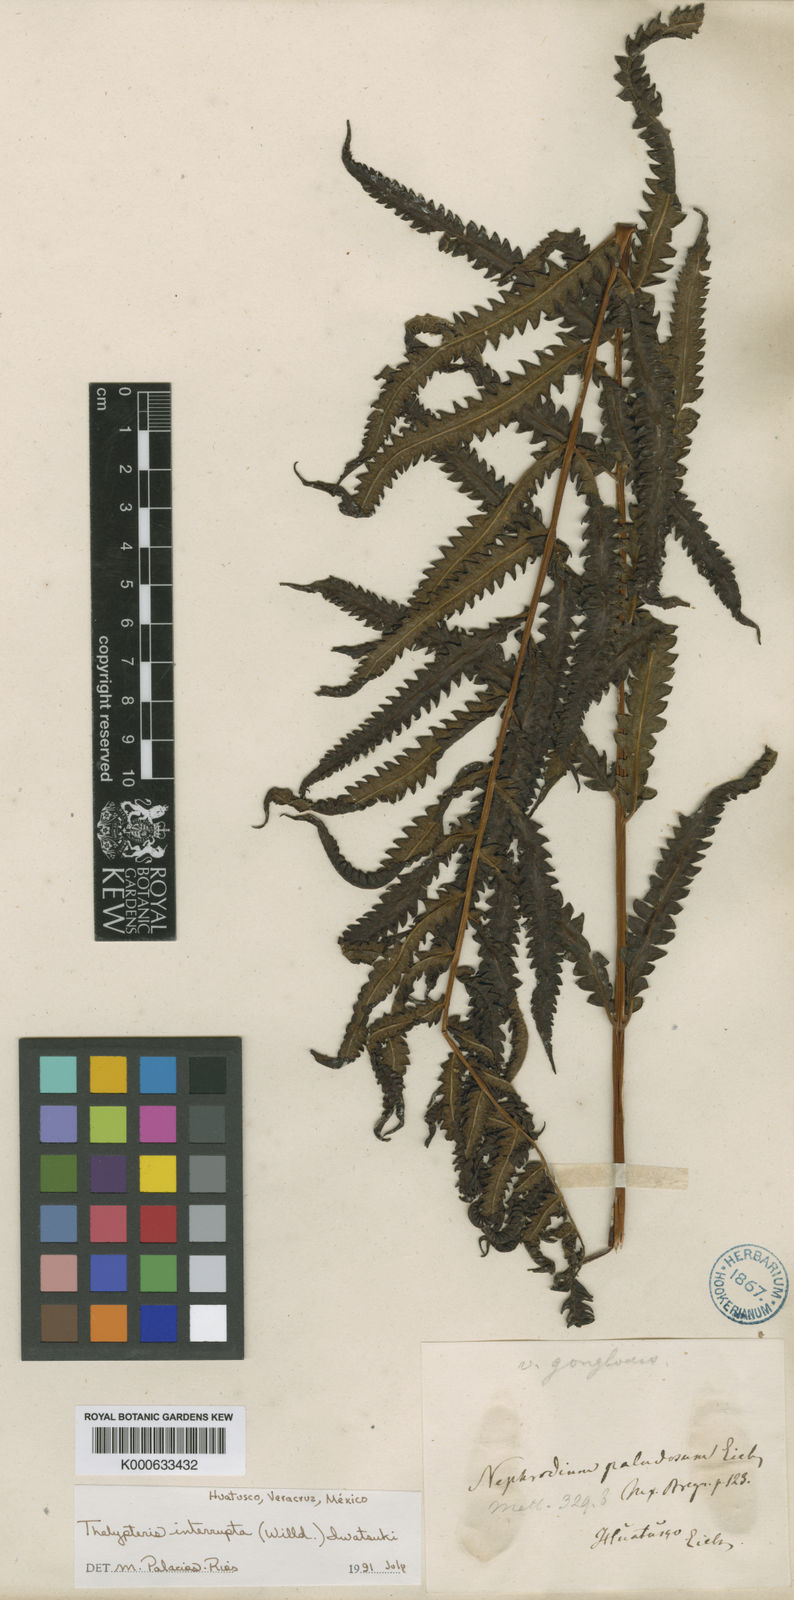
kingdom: Plantae
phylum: Tracheophyta
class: Polypodiopsida
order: Polypodiales
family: Thelypteridaceae
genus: Cyclosorus
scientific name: Cyclosorus interruptus
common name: Neke fern
